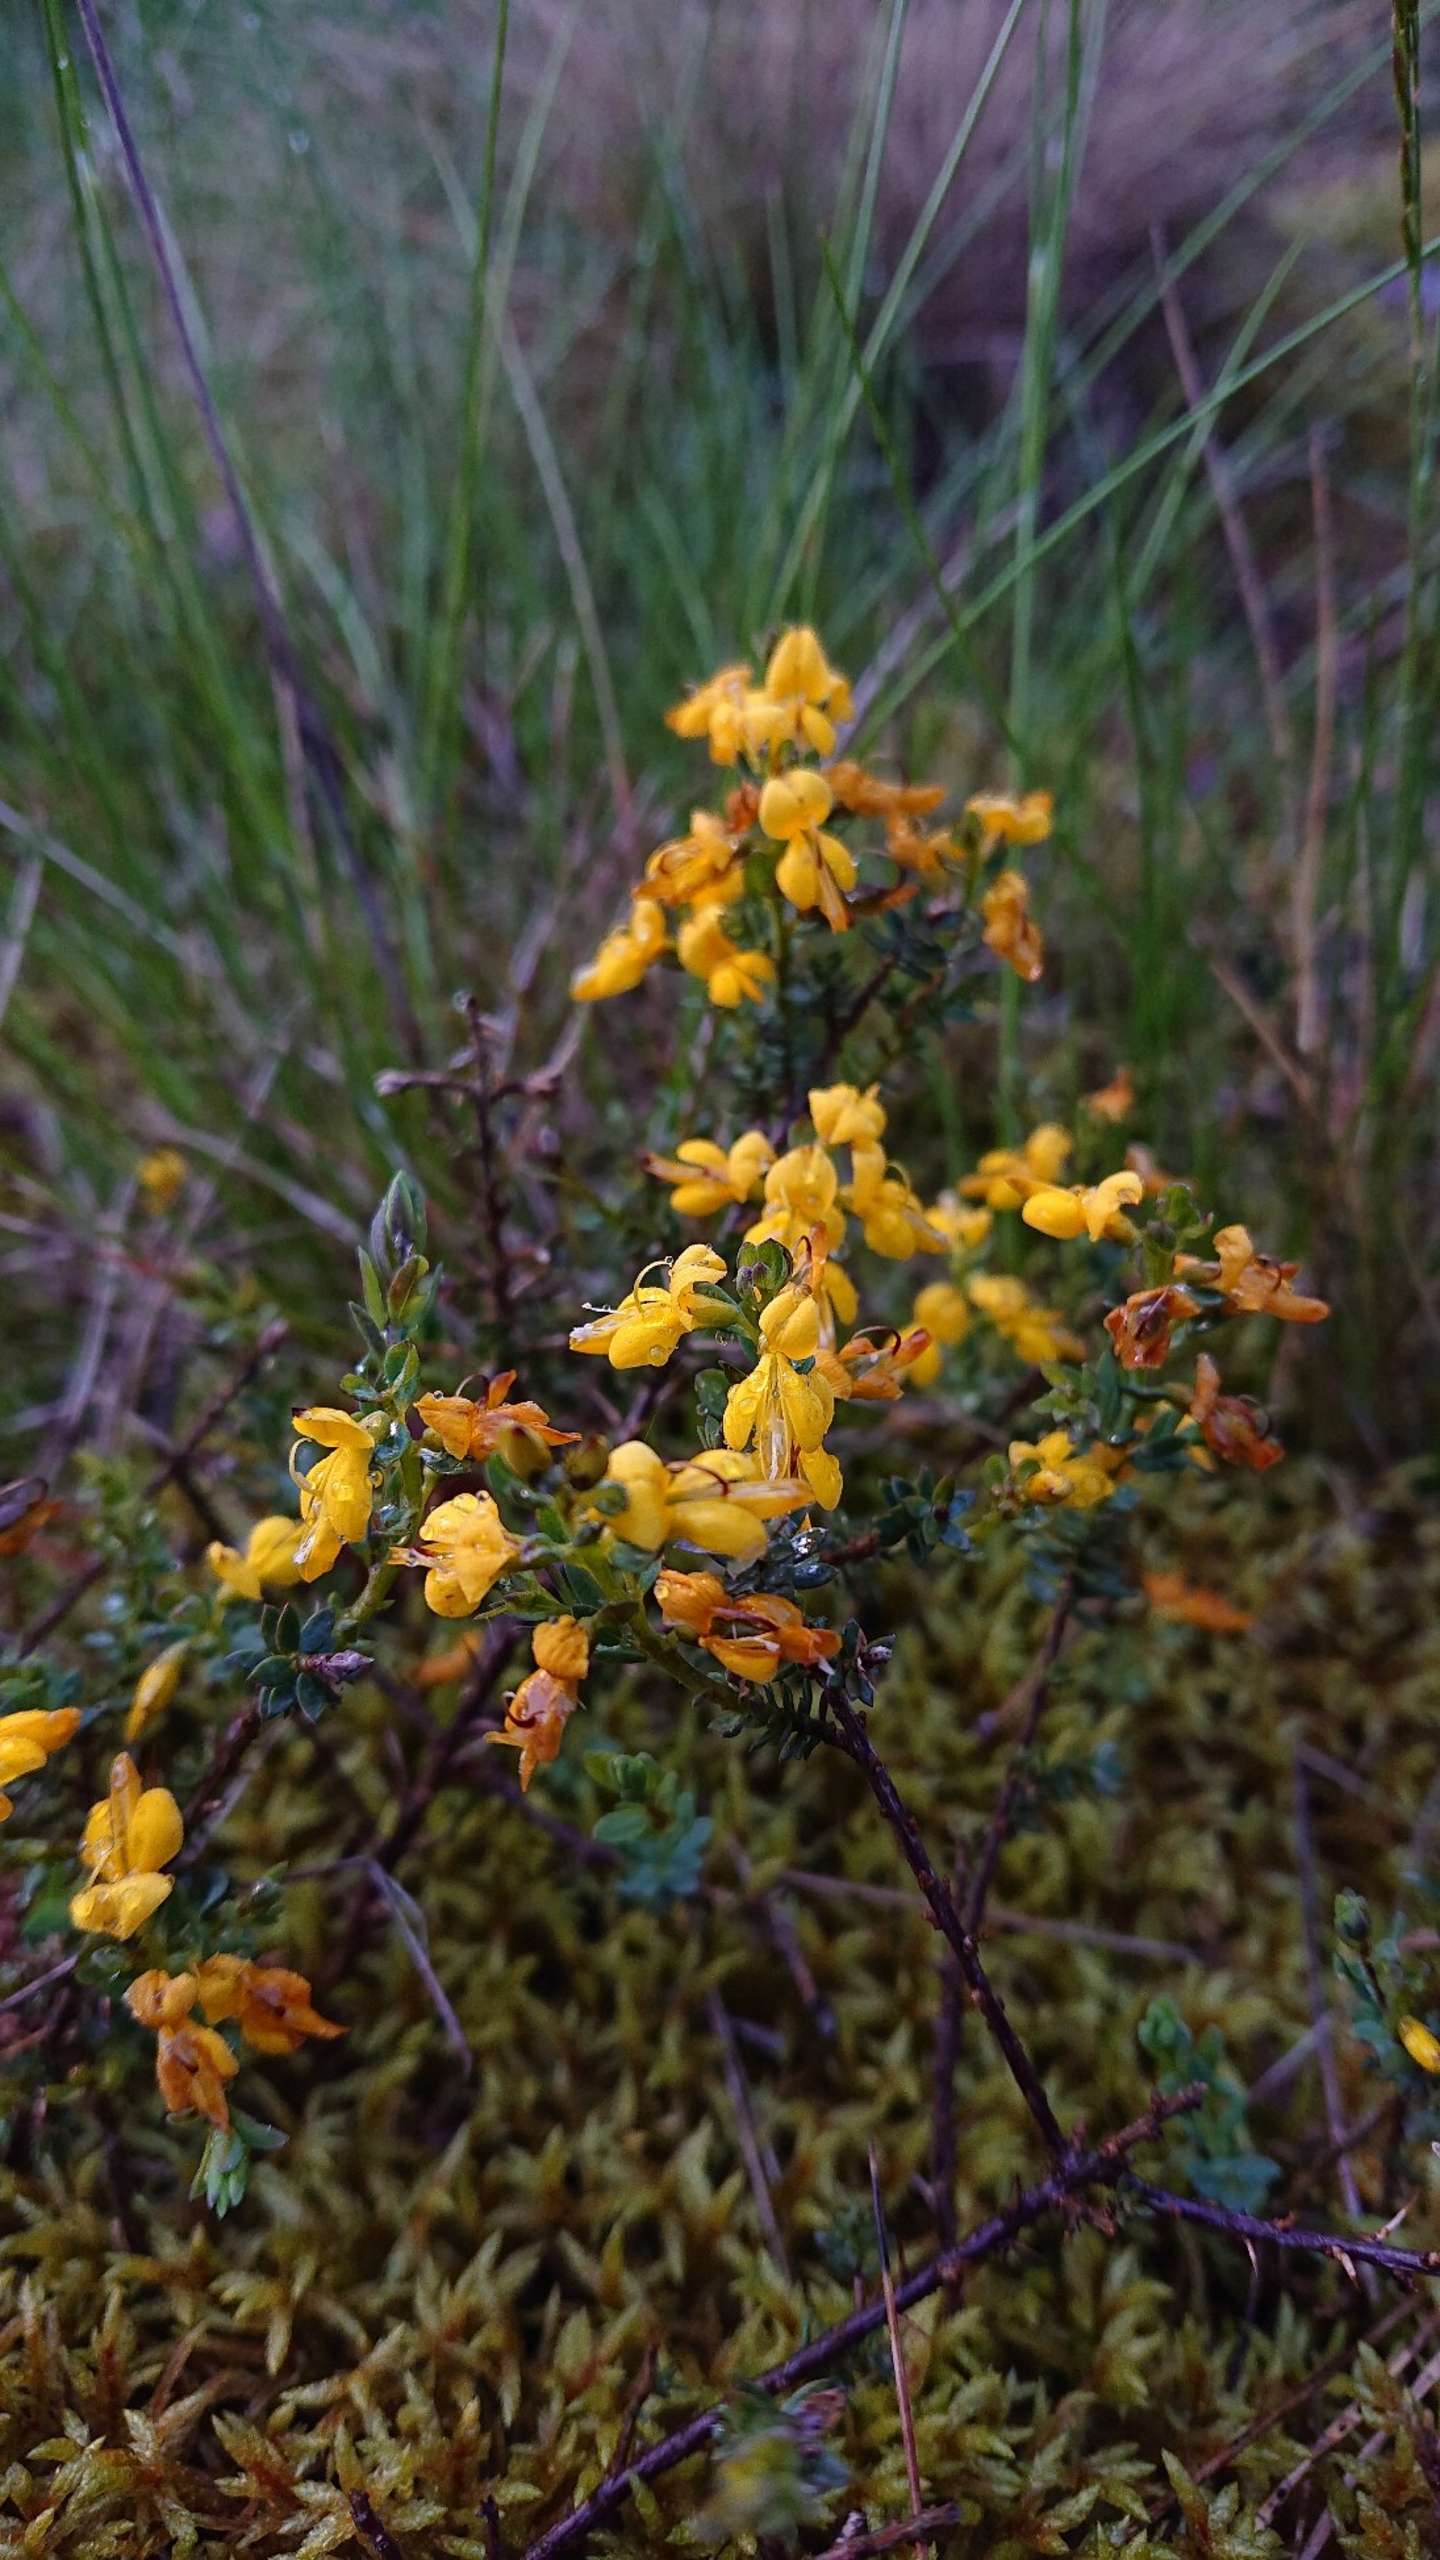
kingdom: Plantae
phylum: Tracheophyta
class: Magnoliopsida
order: Fabales
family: Fabaceae
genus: Genista
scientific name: Genista anglica
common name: Engelsk visse
